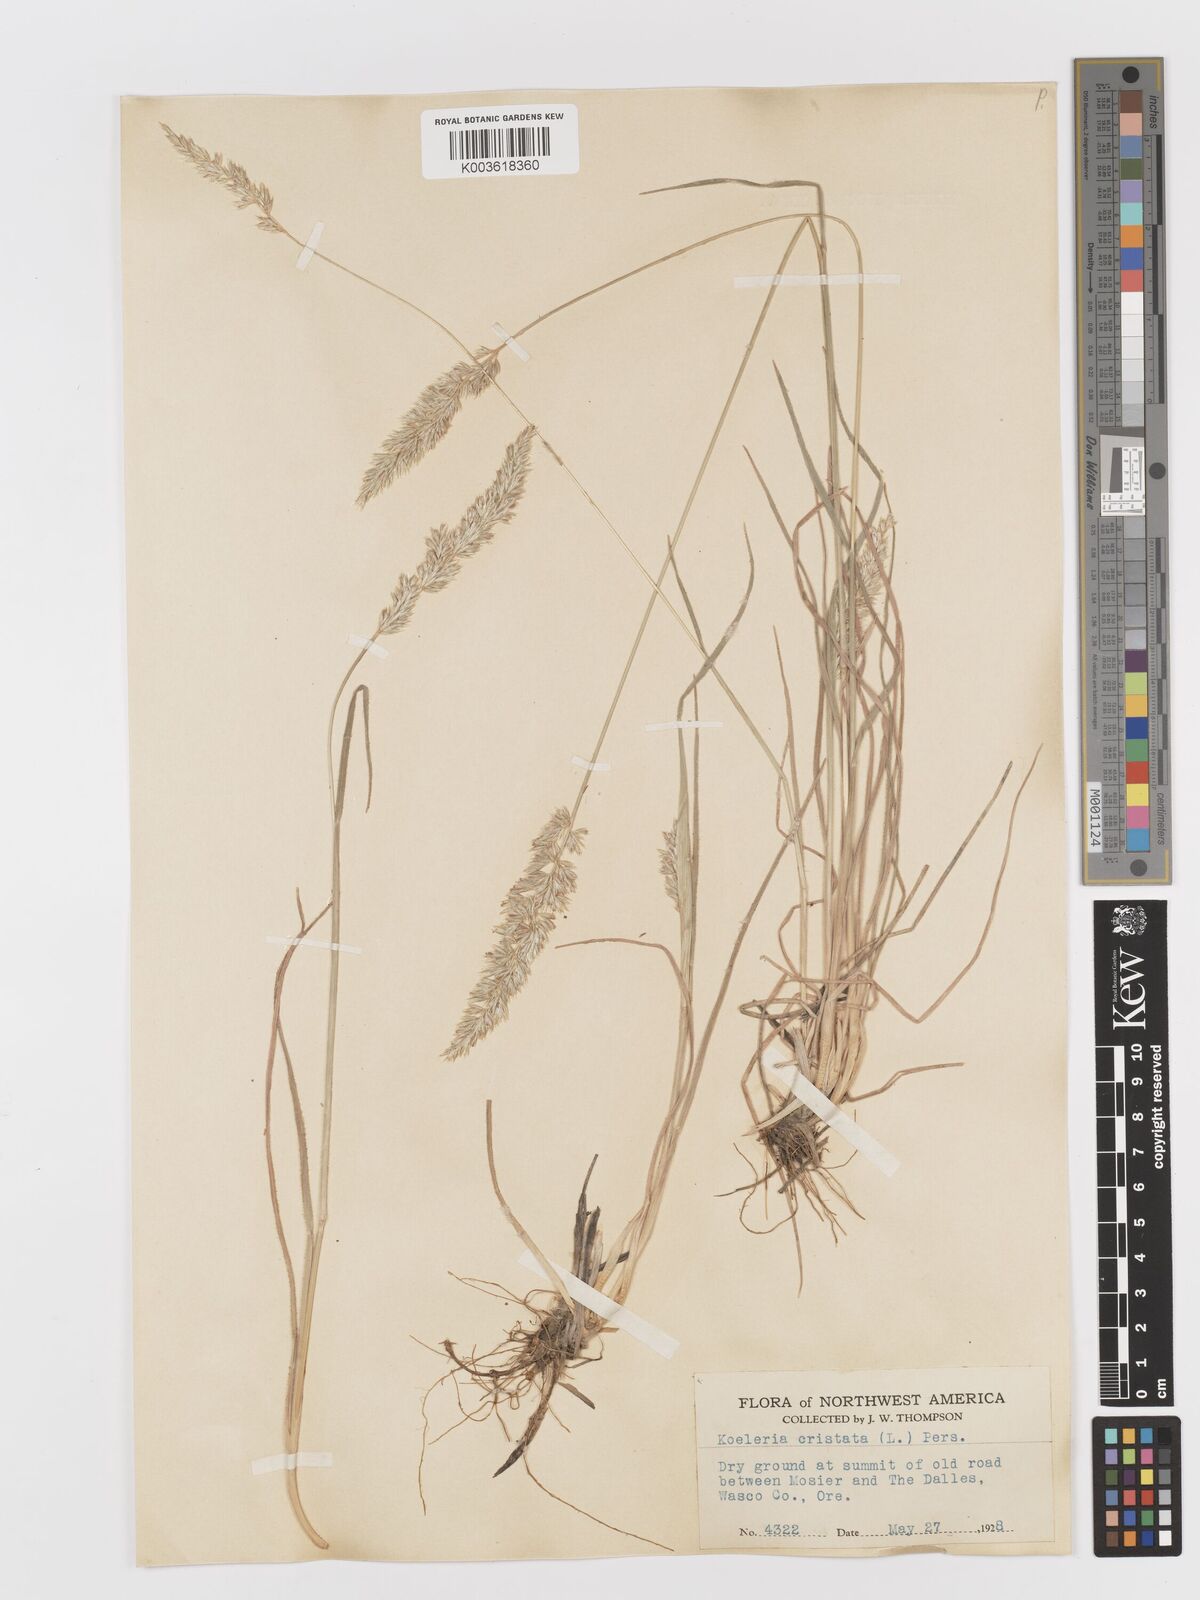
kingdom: Plantae
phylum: Tracheophyta
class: Liliopsida
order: Poales
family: Poaceae
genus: Koeleria
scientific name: Koeleria
